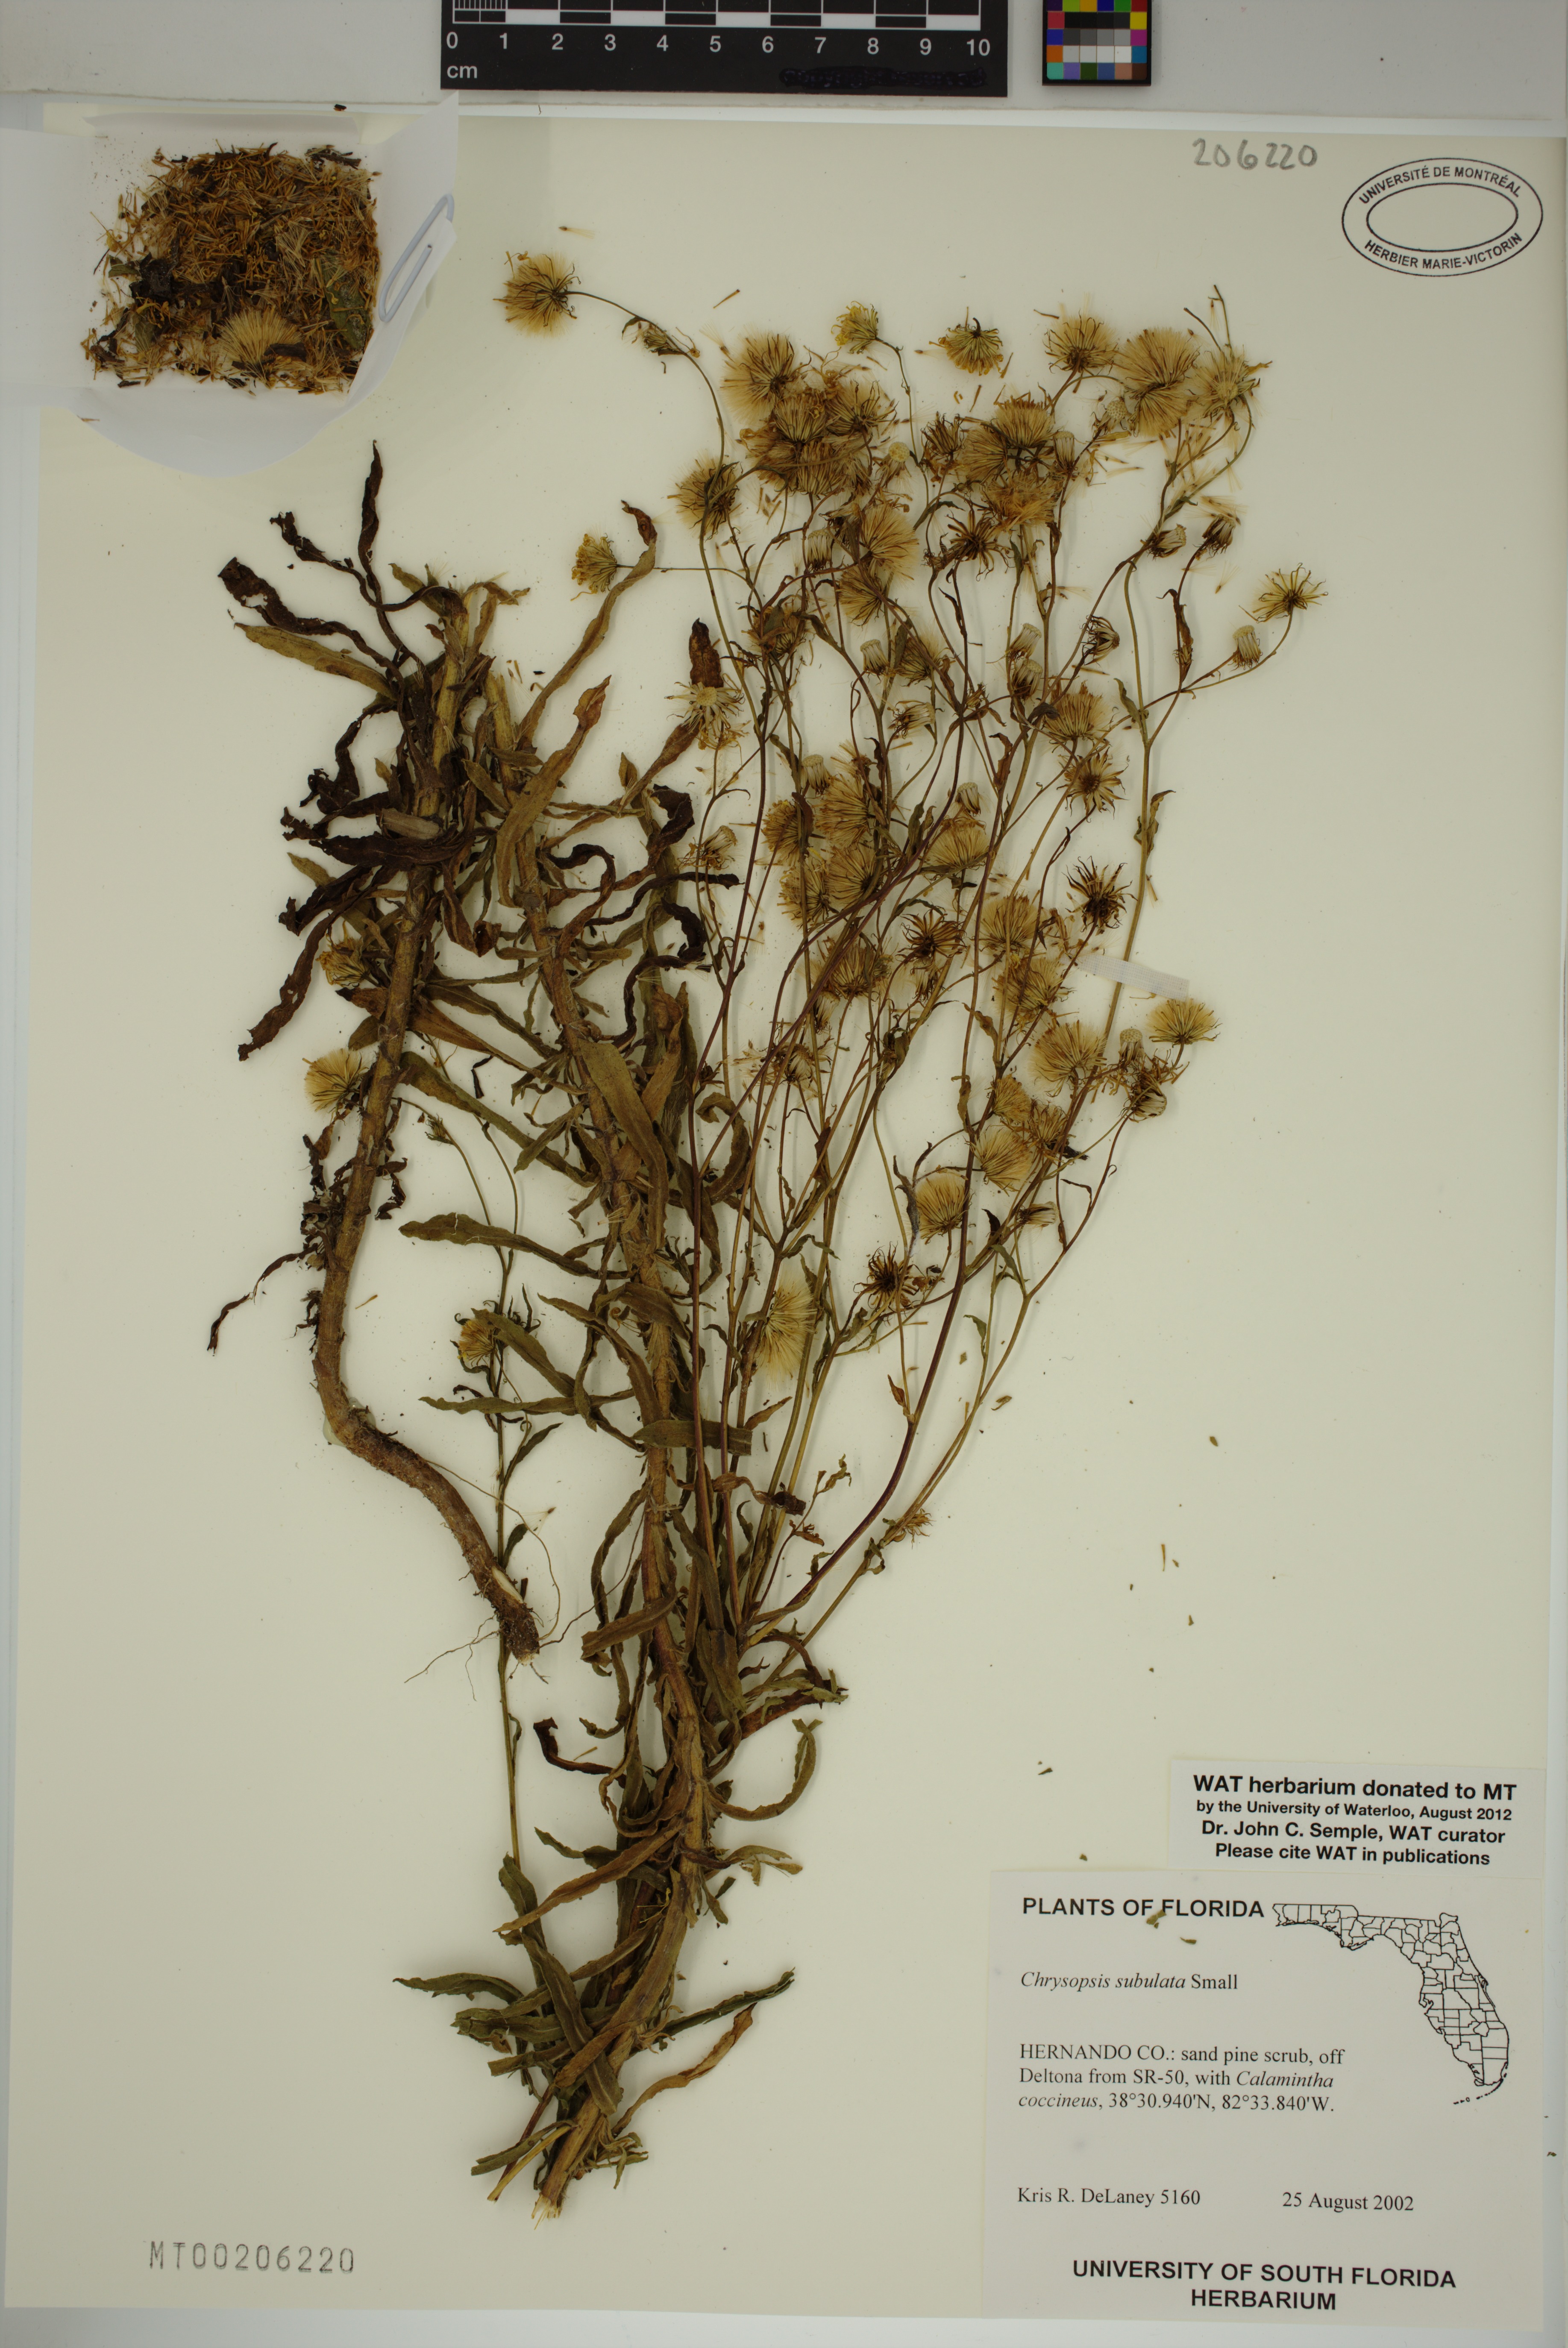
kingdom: Plantae
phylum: Tracheophyta
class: Magnoliopsida
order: Asterales
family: Asteraceae
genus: Chrysopsis
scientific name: Chrysopsis subulata
